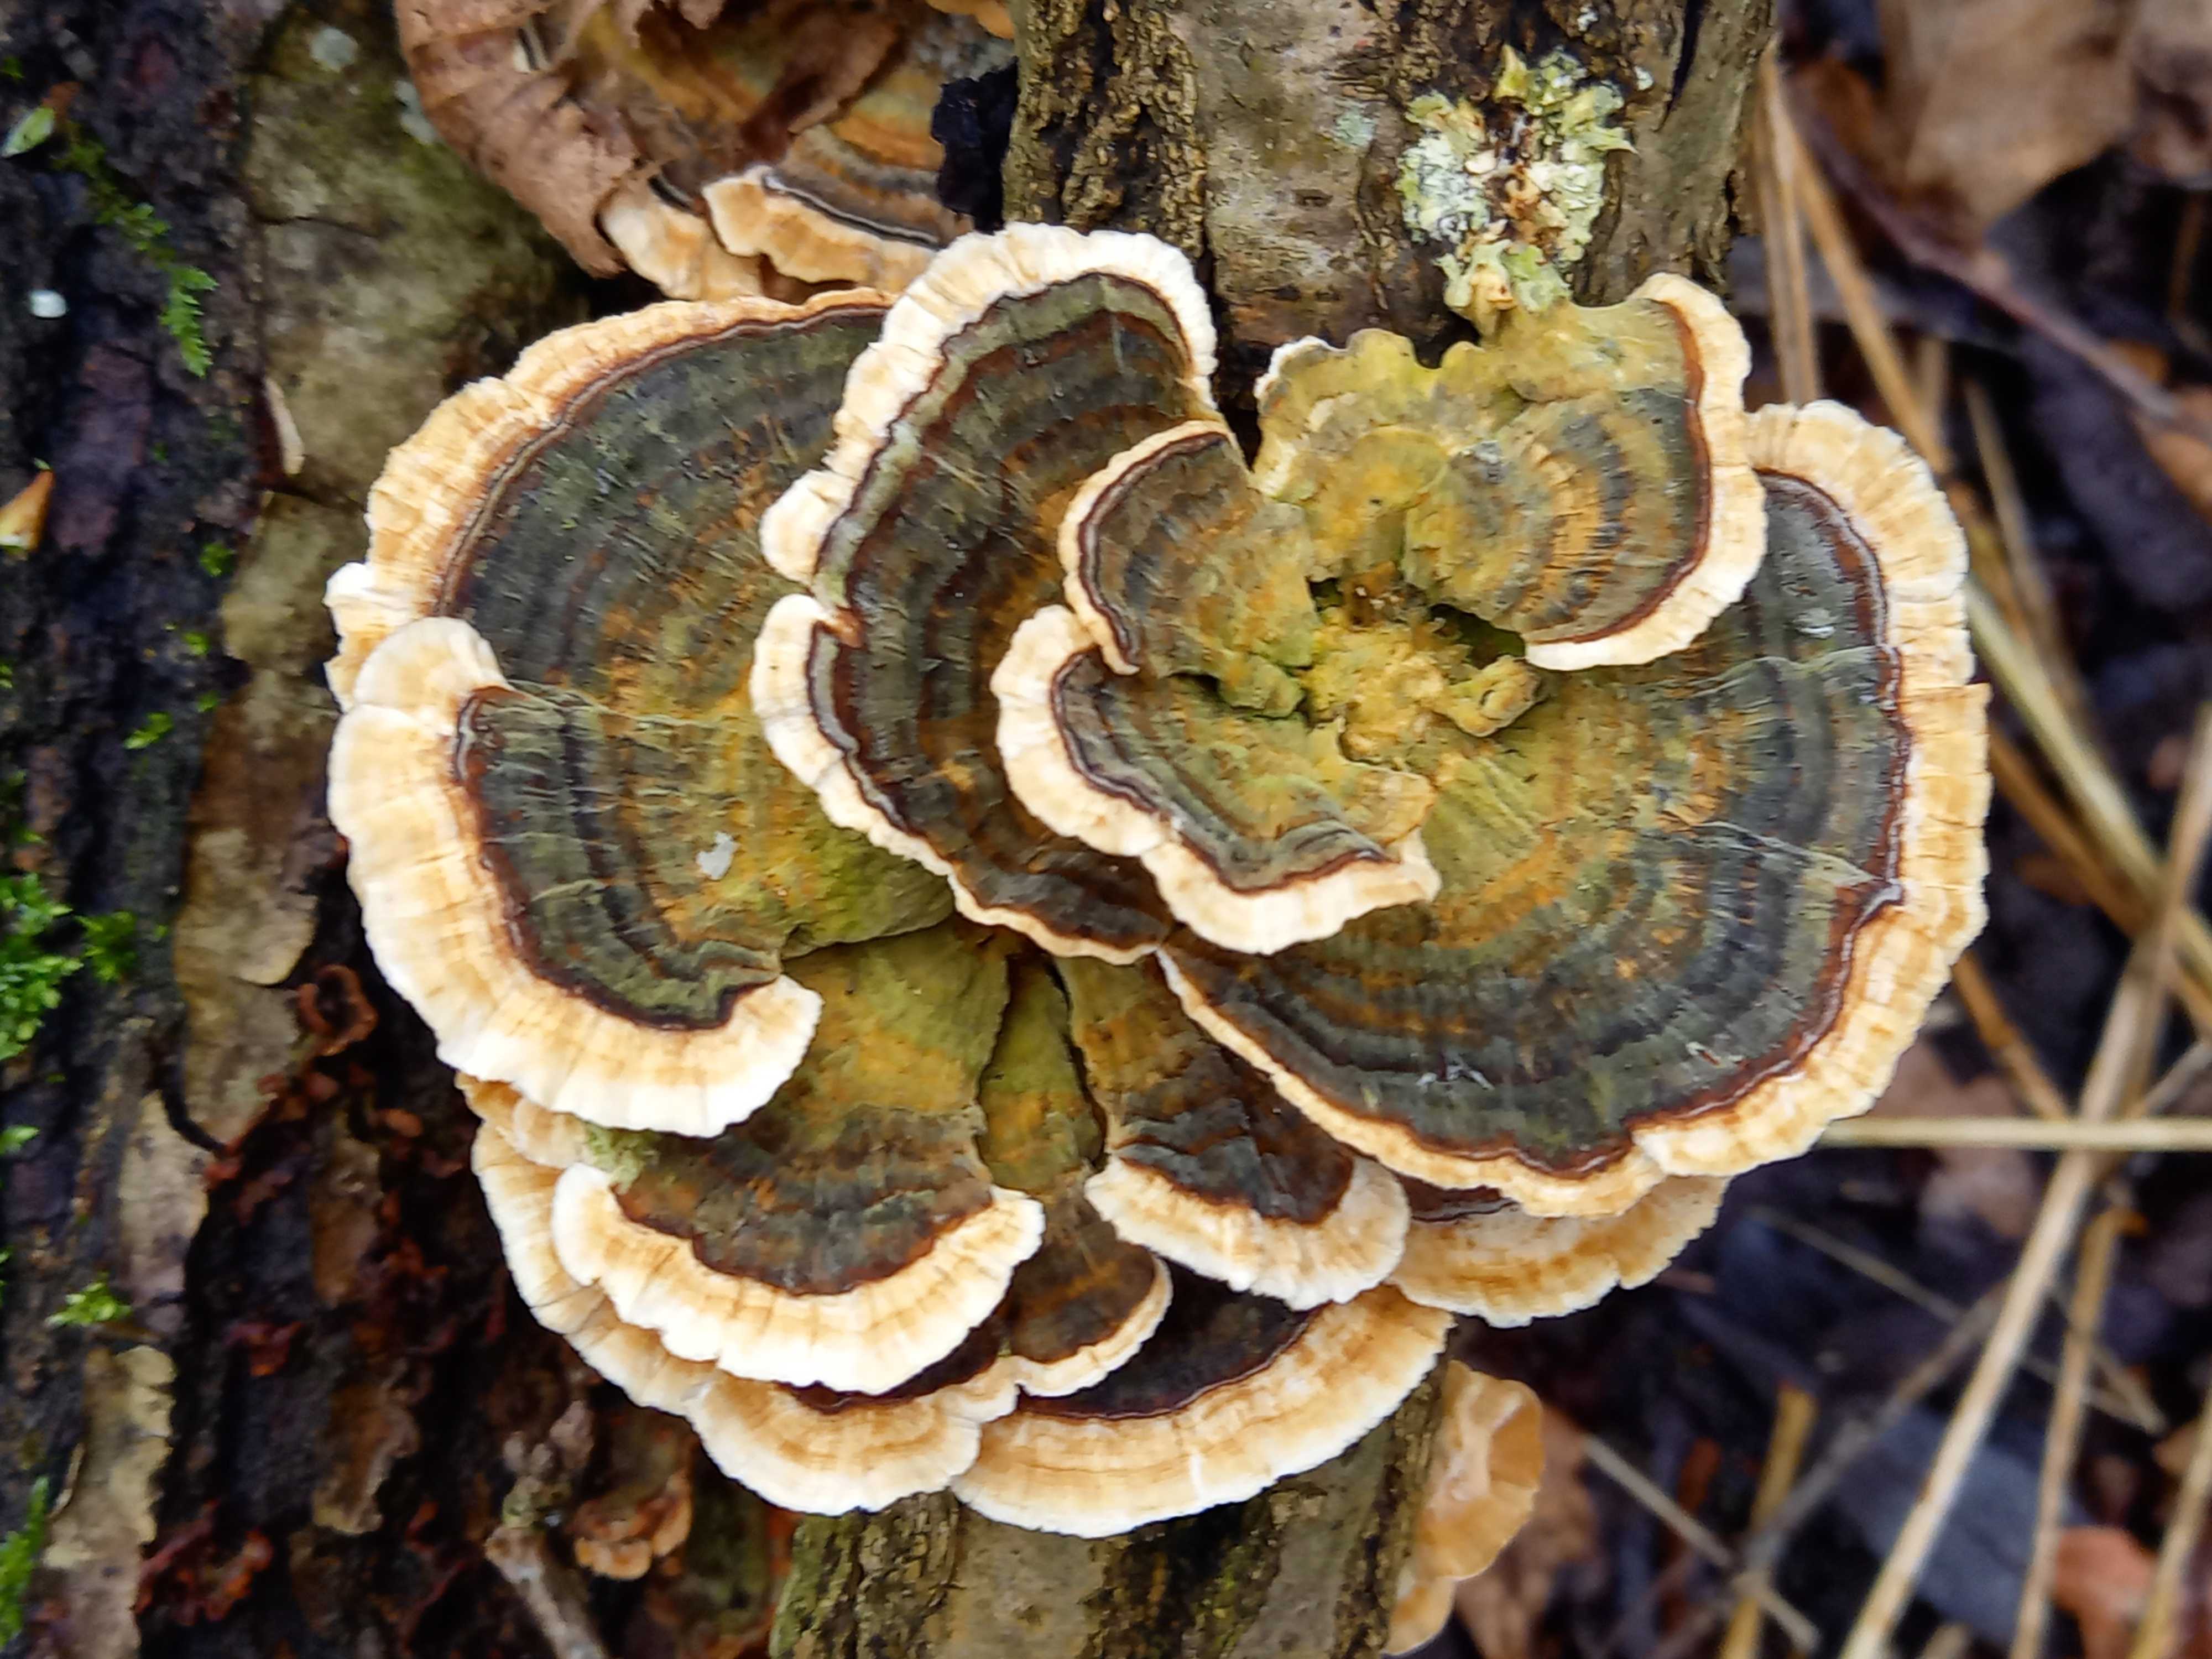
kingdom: Fungi
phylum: Basidiomycota
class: Agaricomycetes
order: Polyporales
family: Polyporaceae
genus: Trametes
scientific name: Trametes versicolor
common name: broget læderporesvamp
